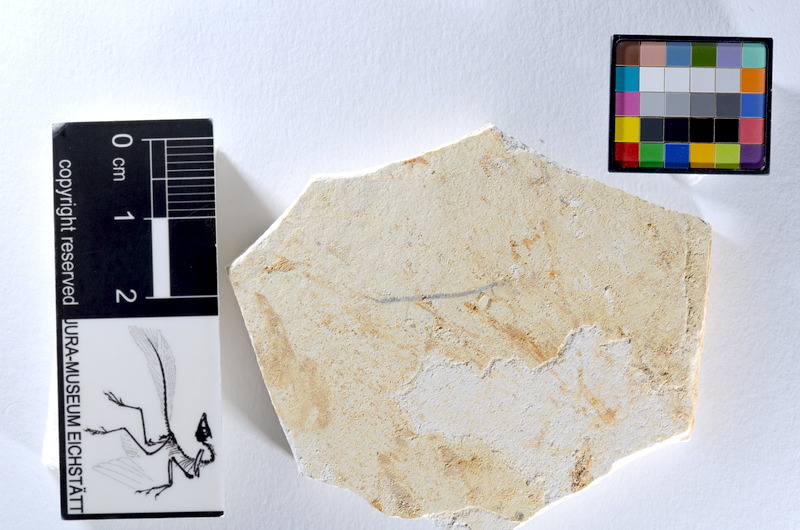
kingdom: Animalia
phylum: Chordata
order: Salmoniformes
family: Orthogonikleithridae
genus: Orthogonikleithrus
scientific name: Orthogonikleithrus hoelli
